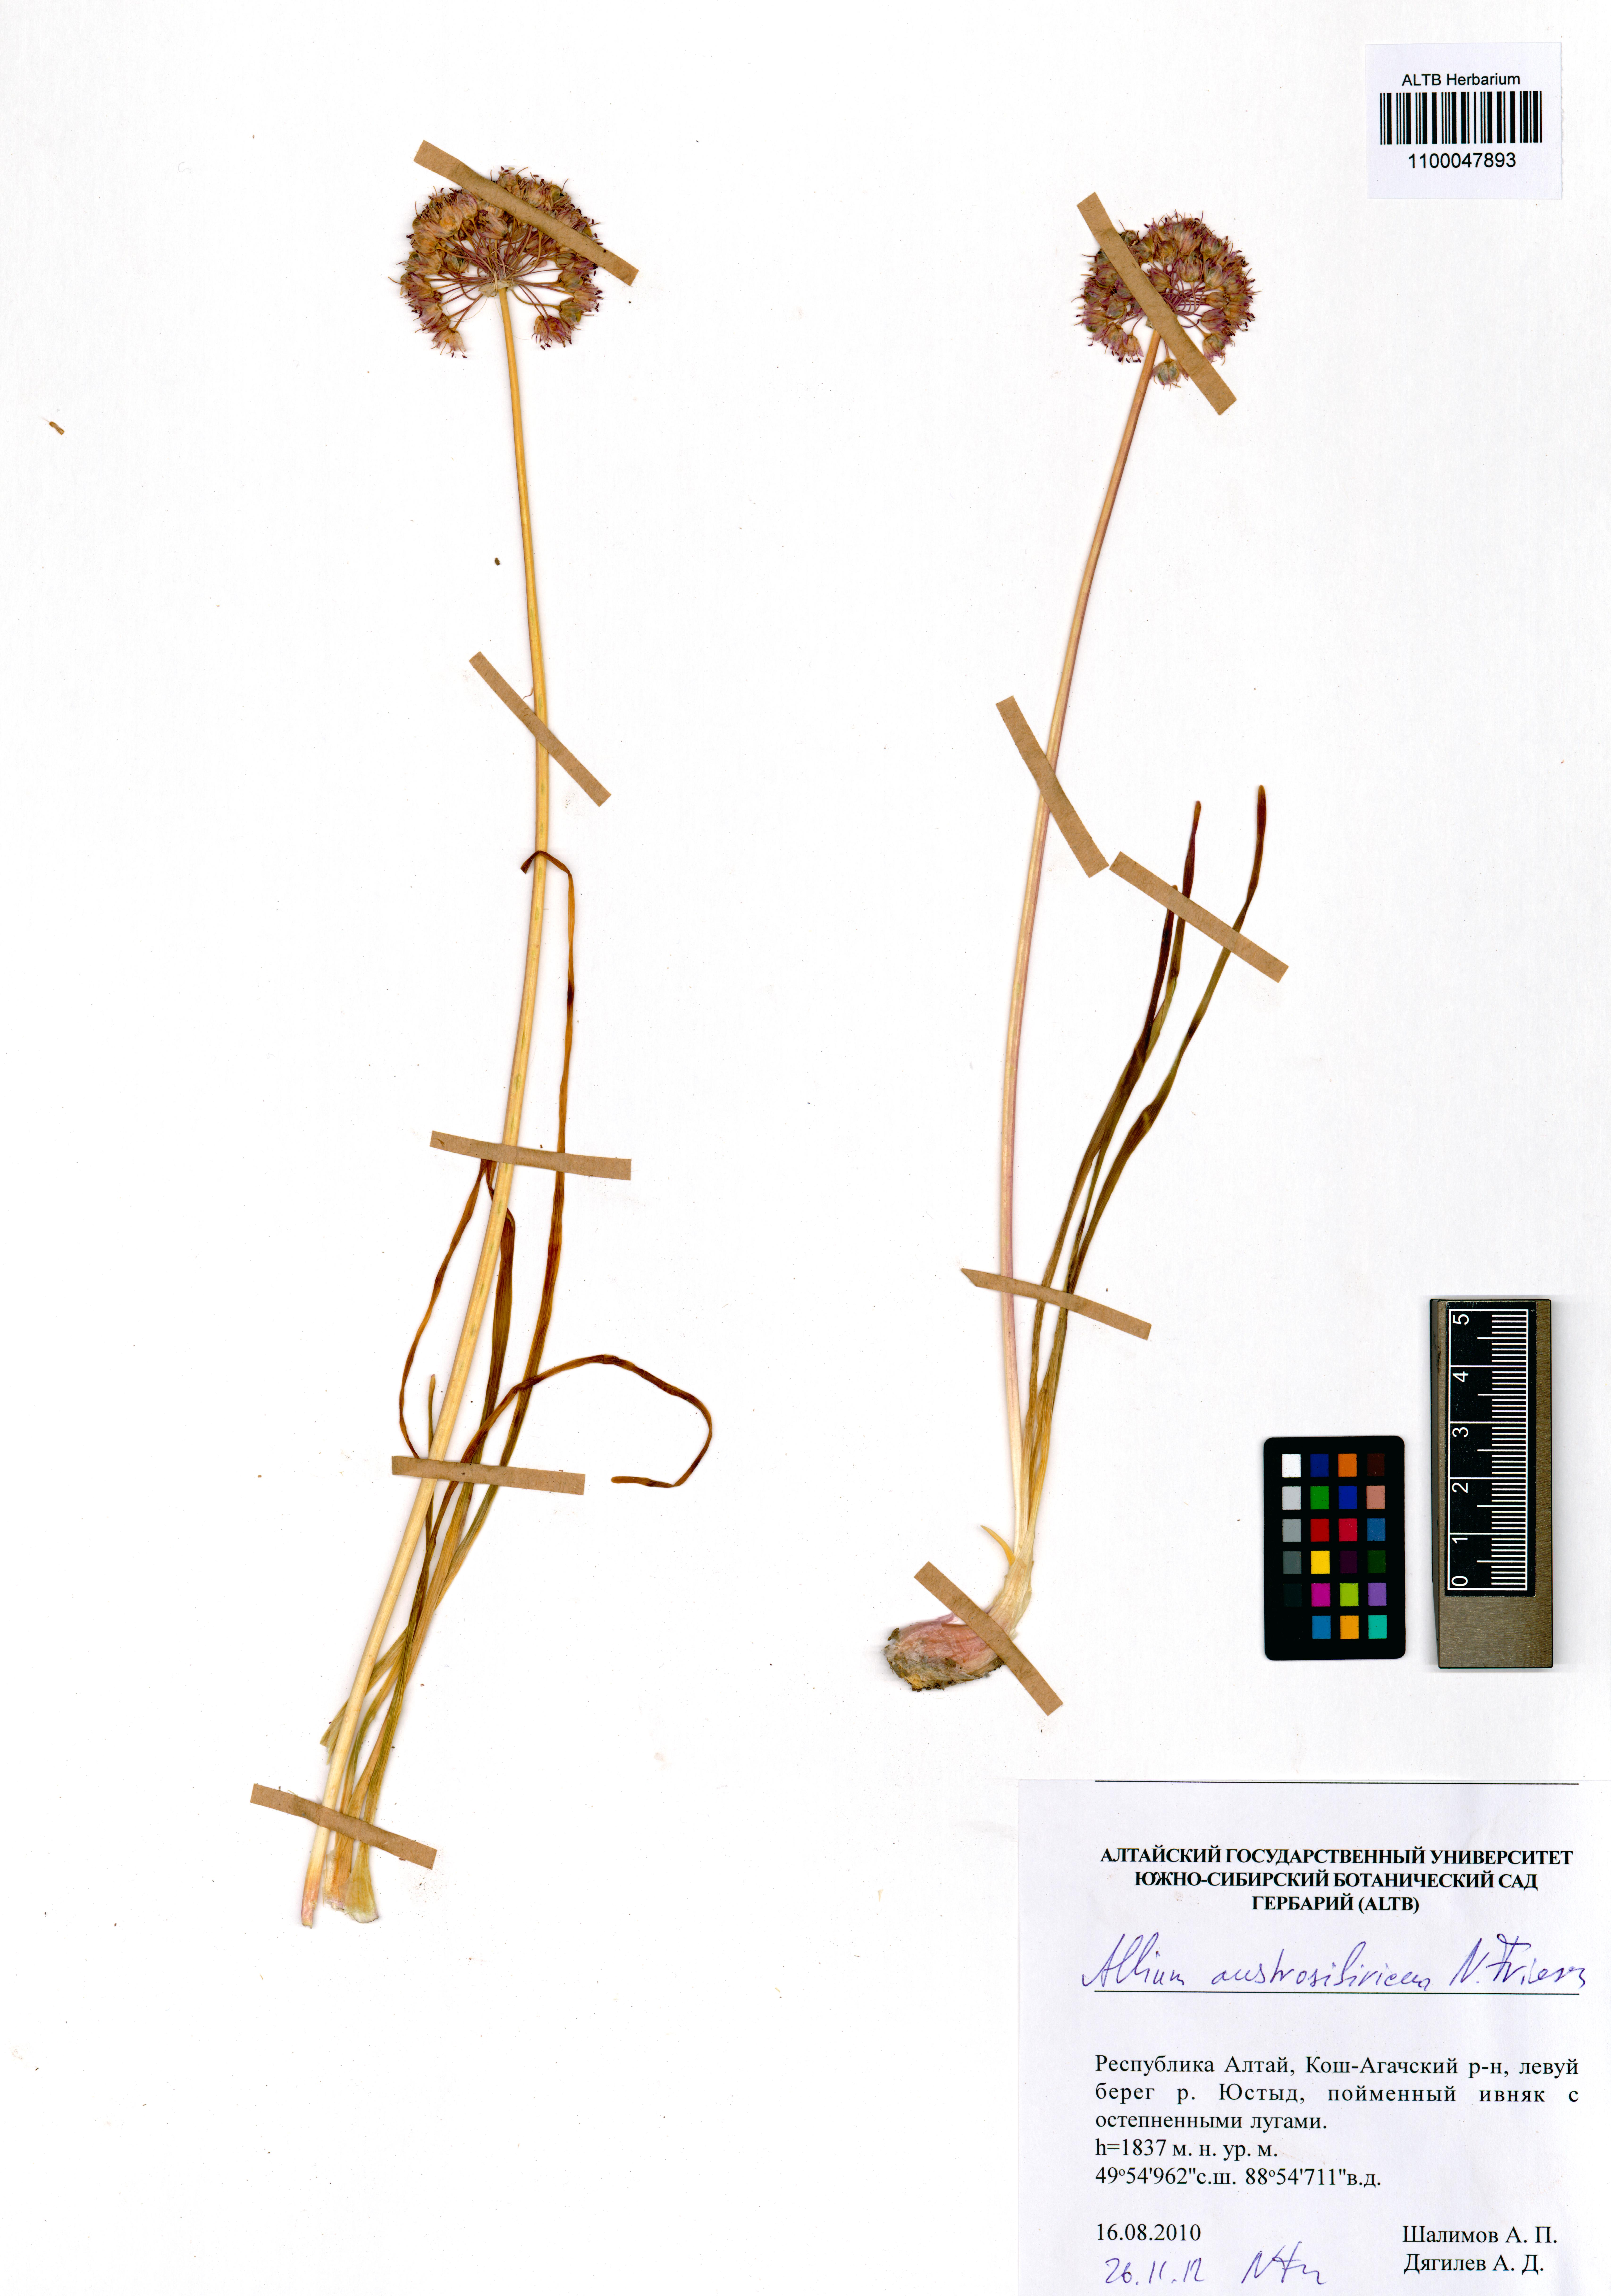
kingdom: Plantae
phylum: Tracheophyta
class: Liliopsida
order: Asparagales
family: Amaryllidaceae
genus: Allium
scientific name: Allium austrosibiricum
